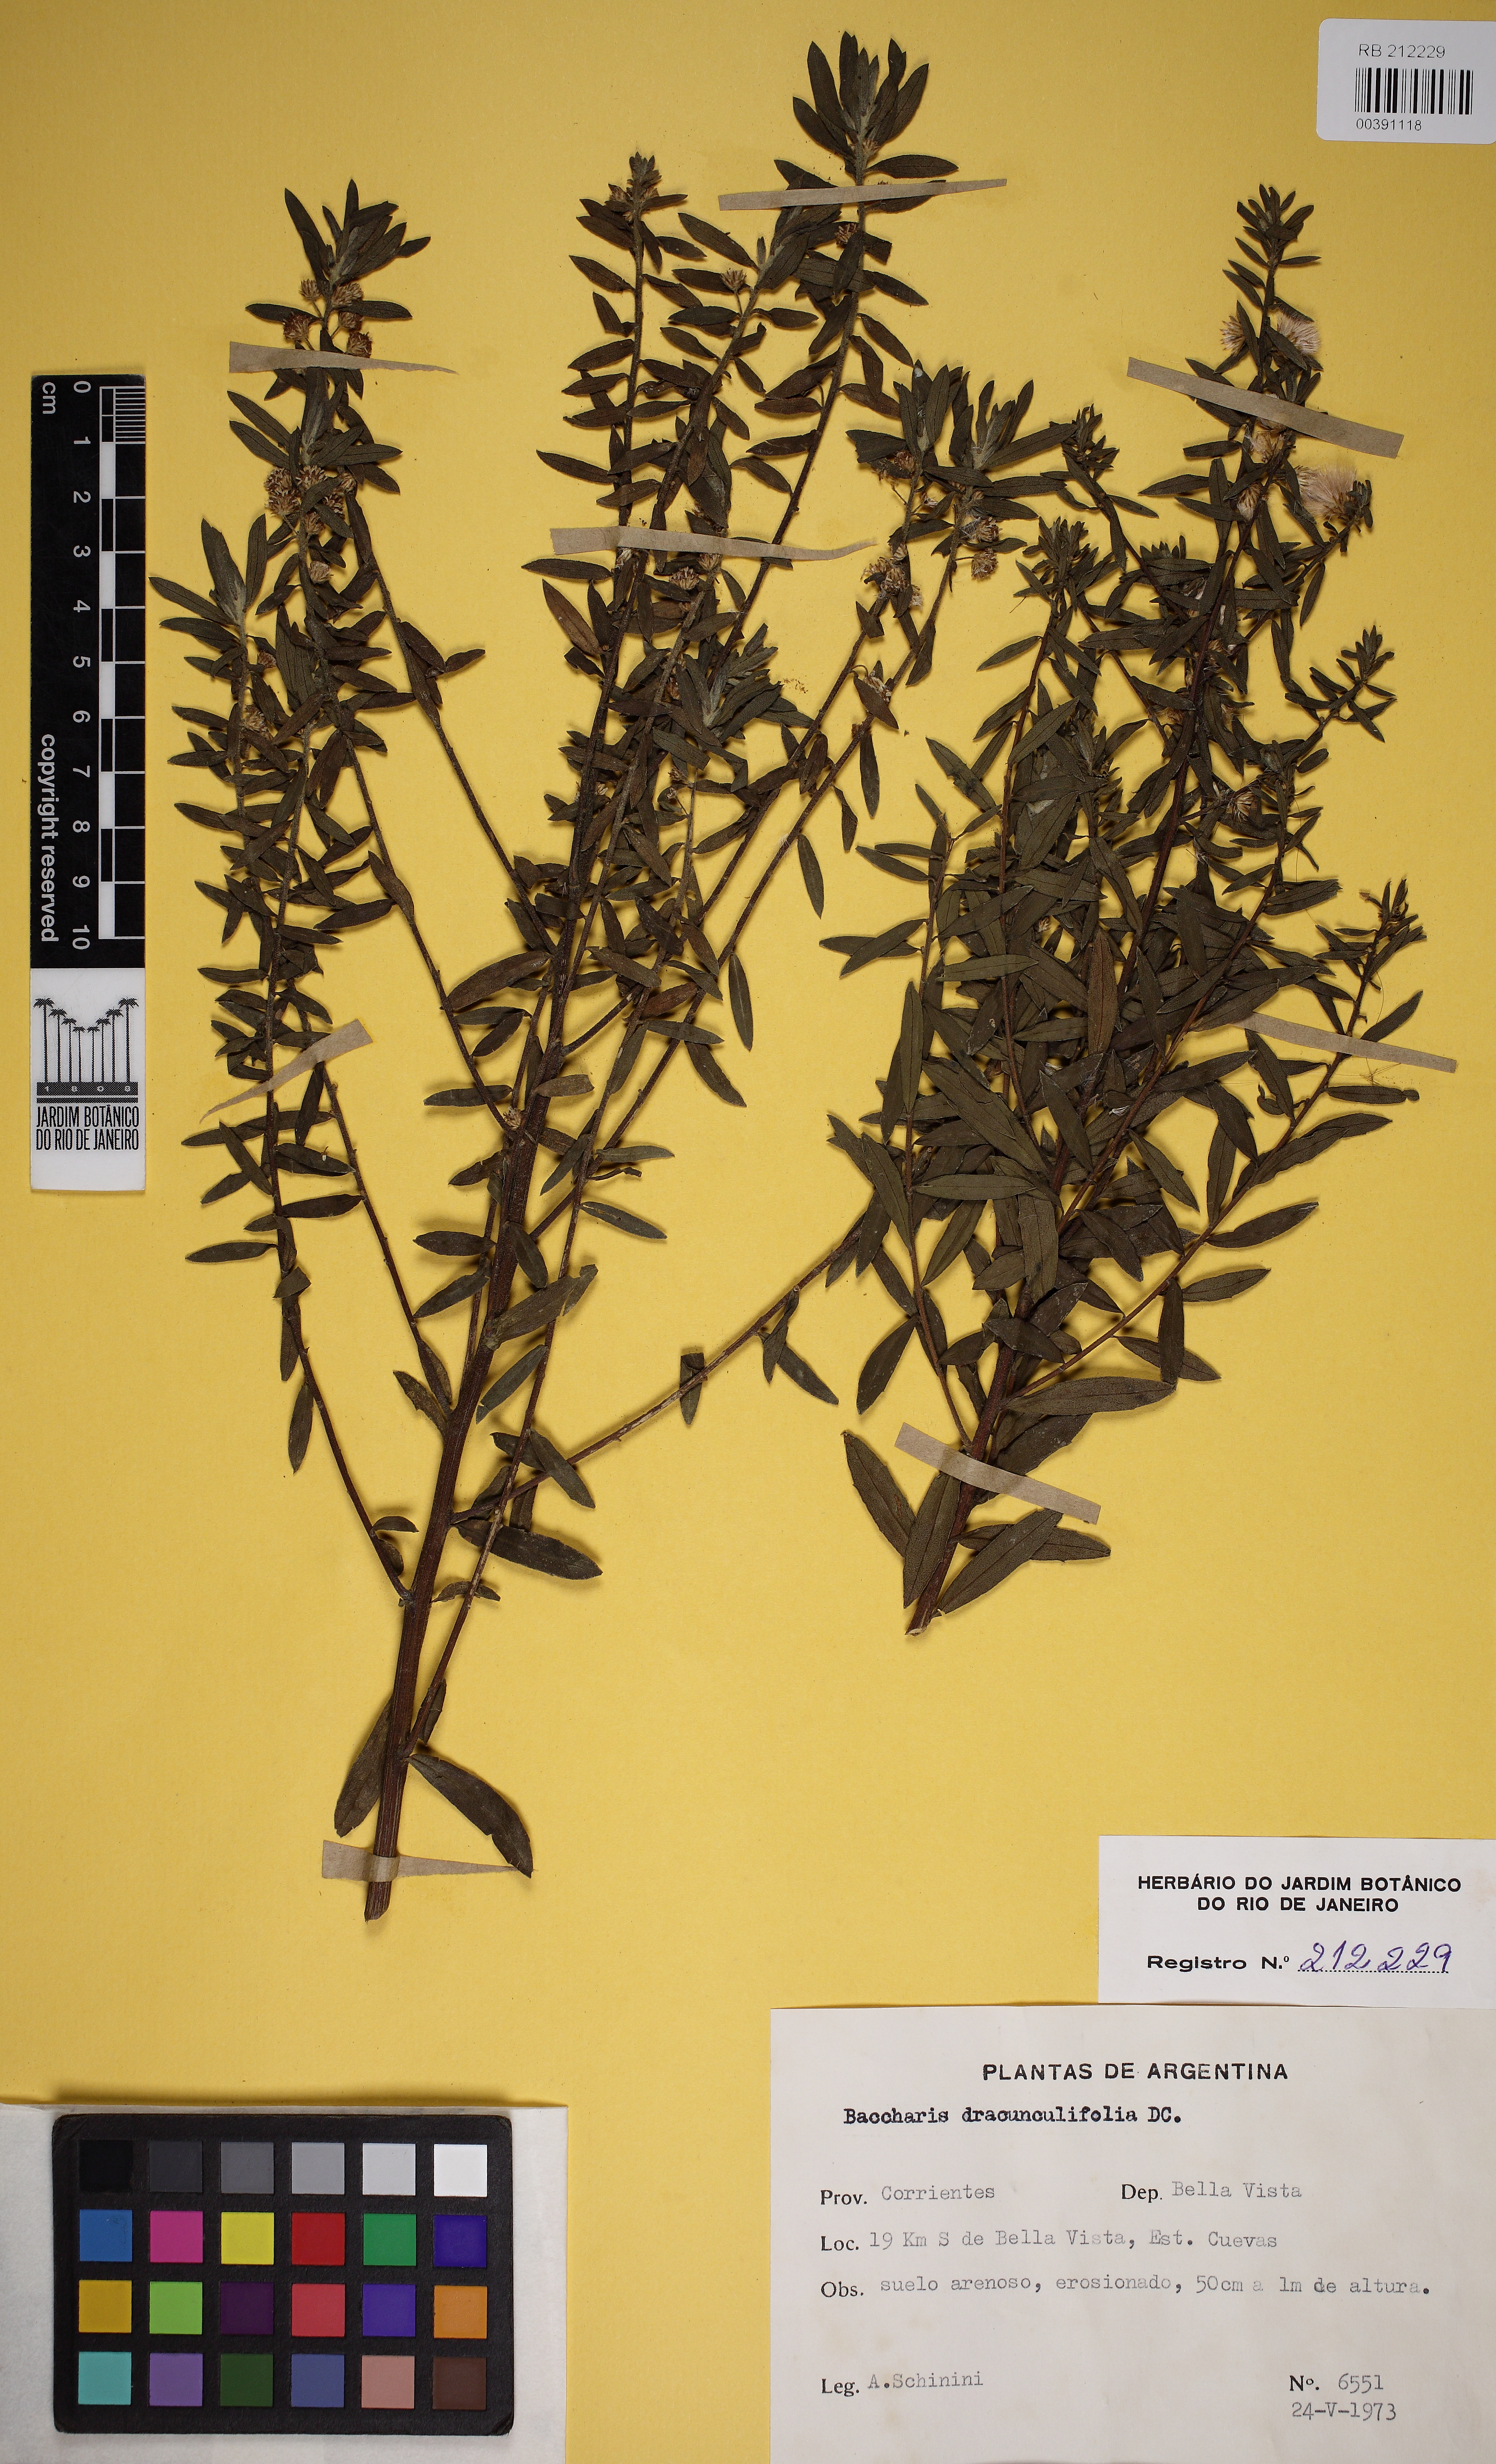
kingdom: Plantae
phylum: Tracheophyta
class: Magnoliopsida
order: Asterales
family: Asteraceae
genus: Baccharis
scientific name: Baccharis dracunculifolia
